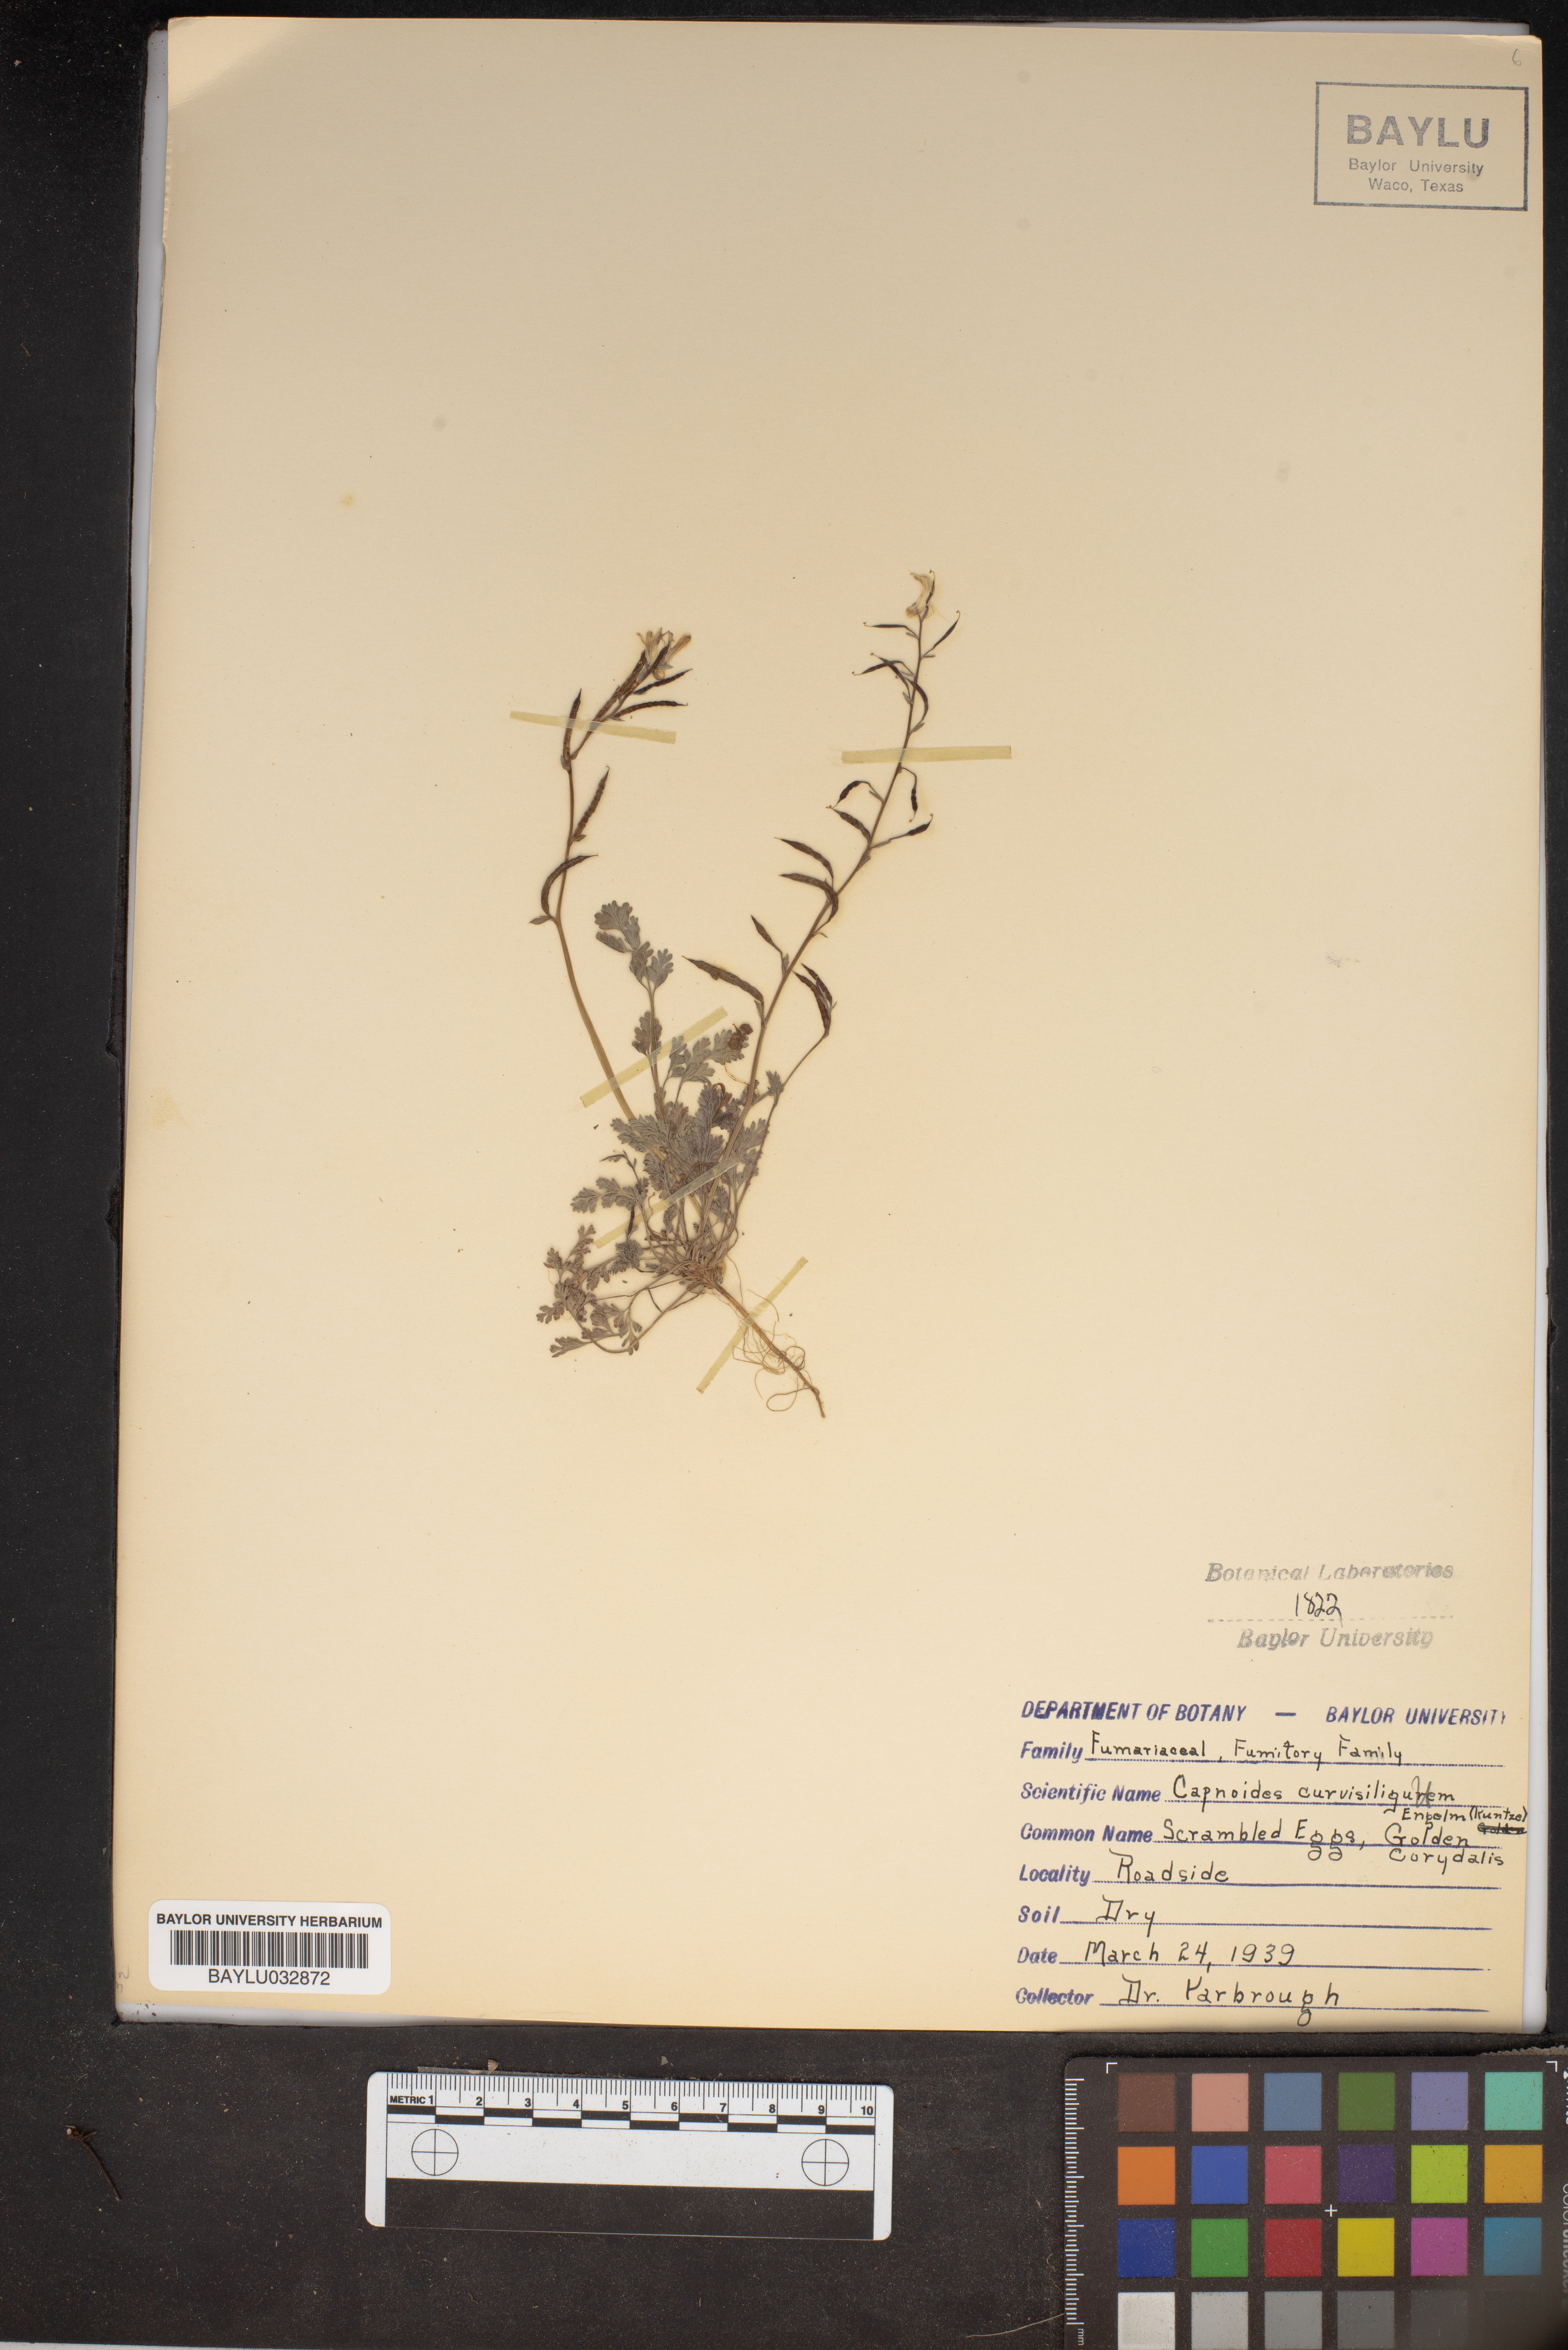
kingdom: Plantae
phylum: Tracheophyta
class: Magnoliopsida
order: Ranunculales
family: Papaveraceae
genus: Corydalis
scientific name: Corydalis curvisiliqua
